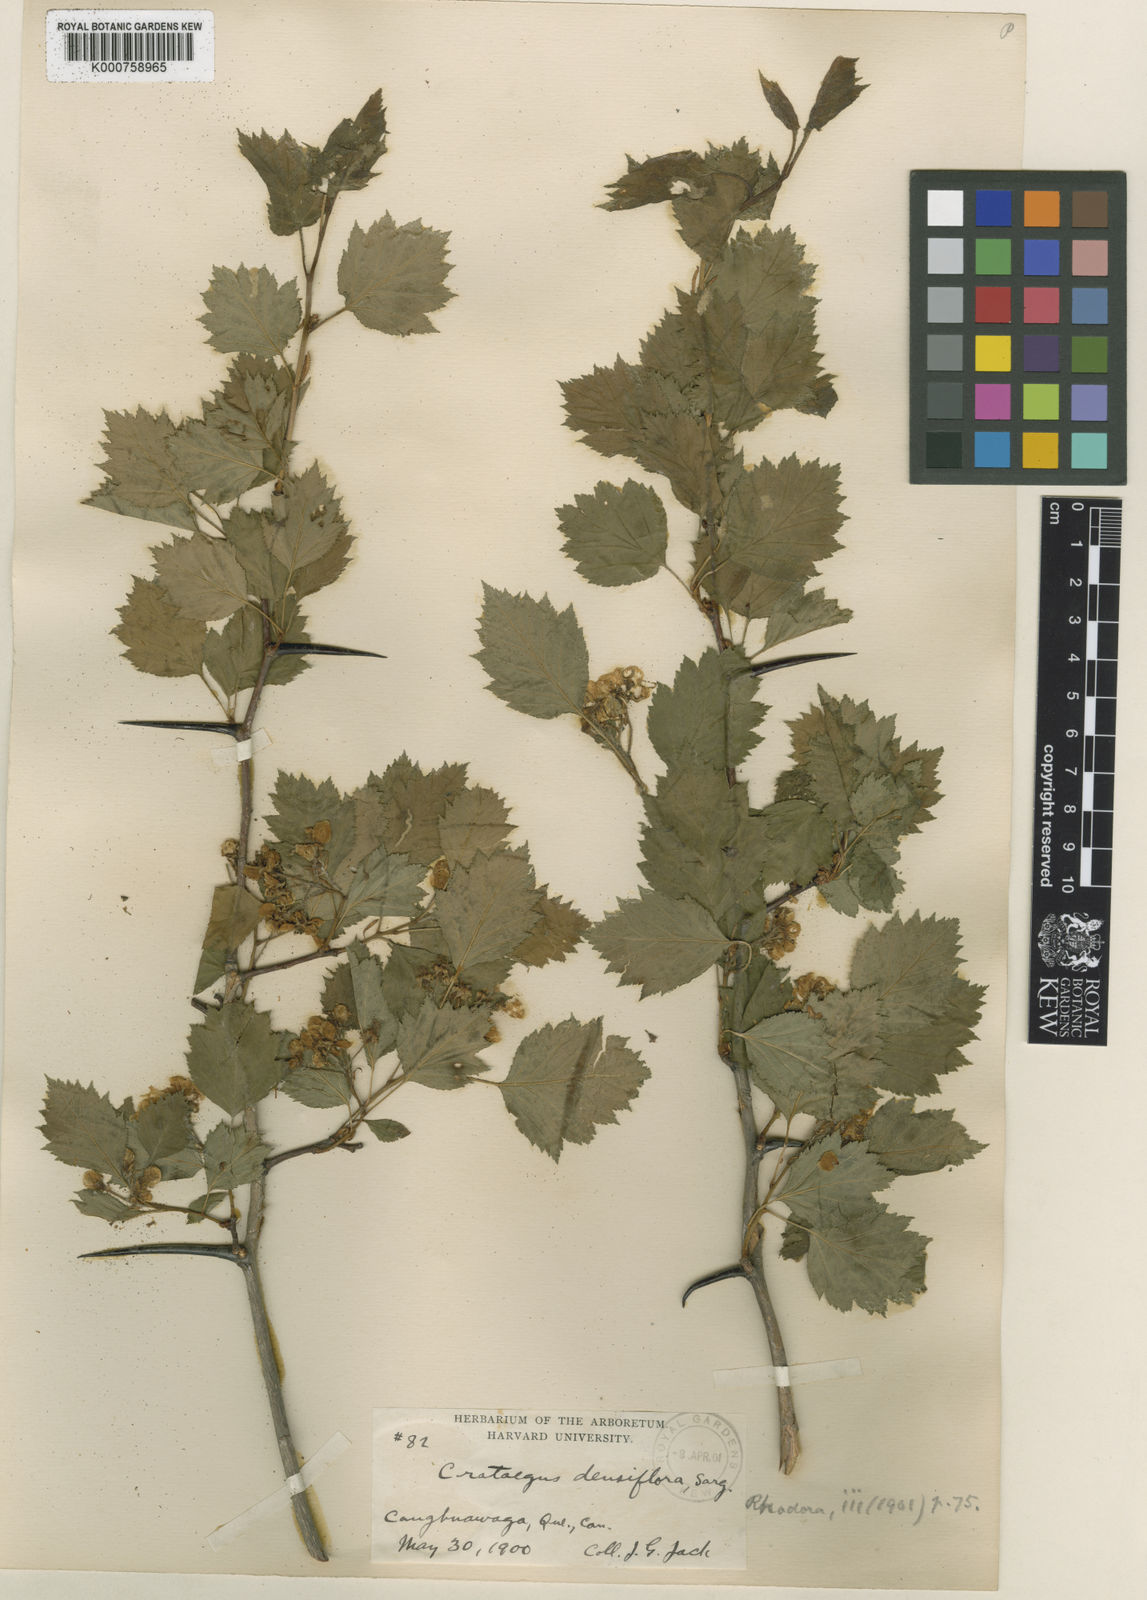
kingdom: Plantae
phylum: Tracheophyta
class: Magnoliopsida
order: Rosales
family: Rosaceae
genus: Crataegus
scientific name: Crataegus flabellata
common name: Bosc's hawthorn
